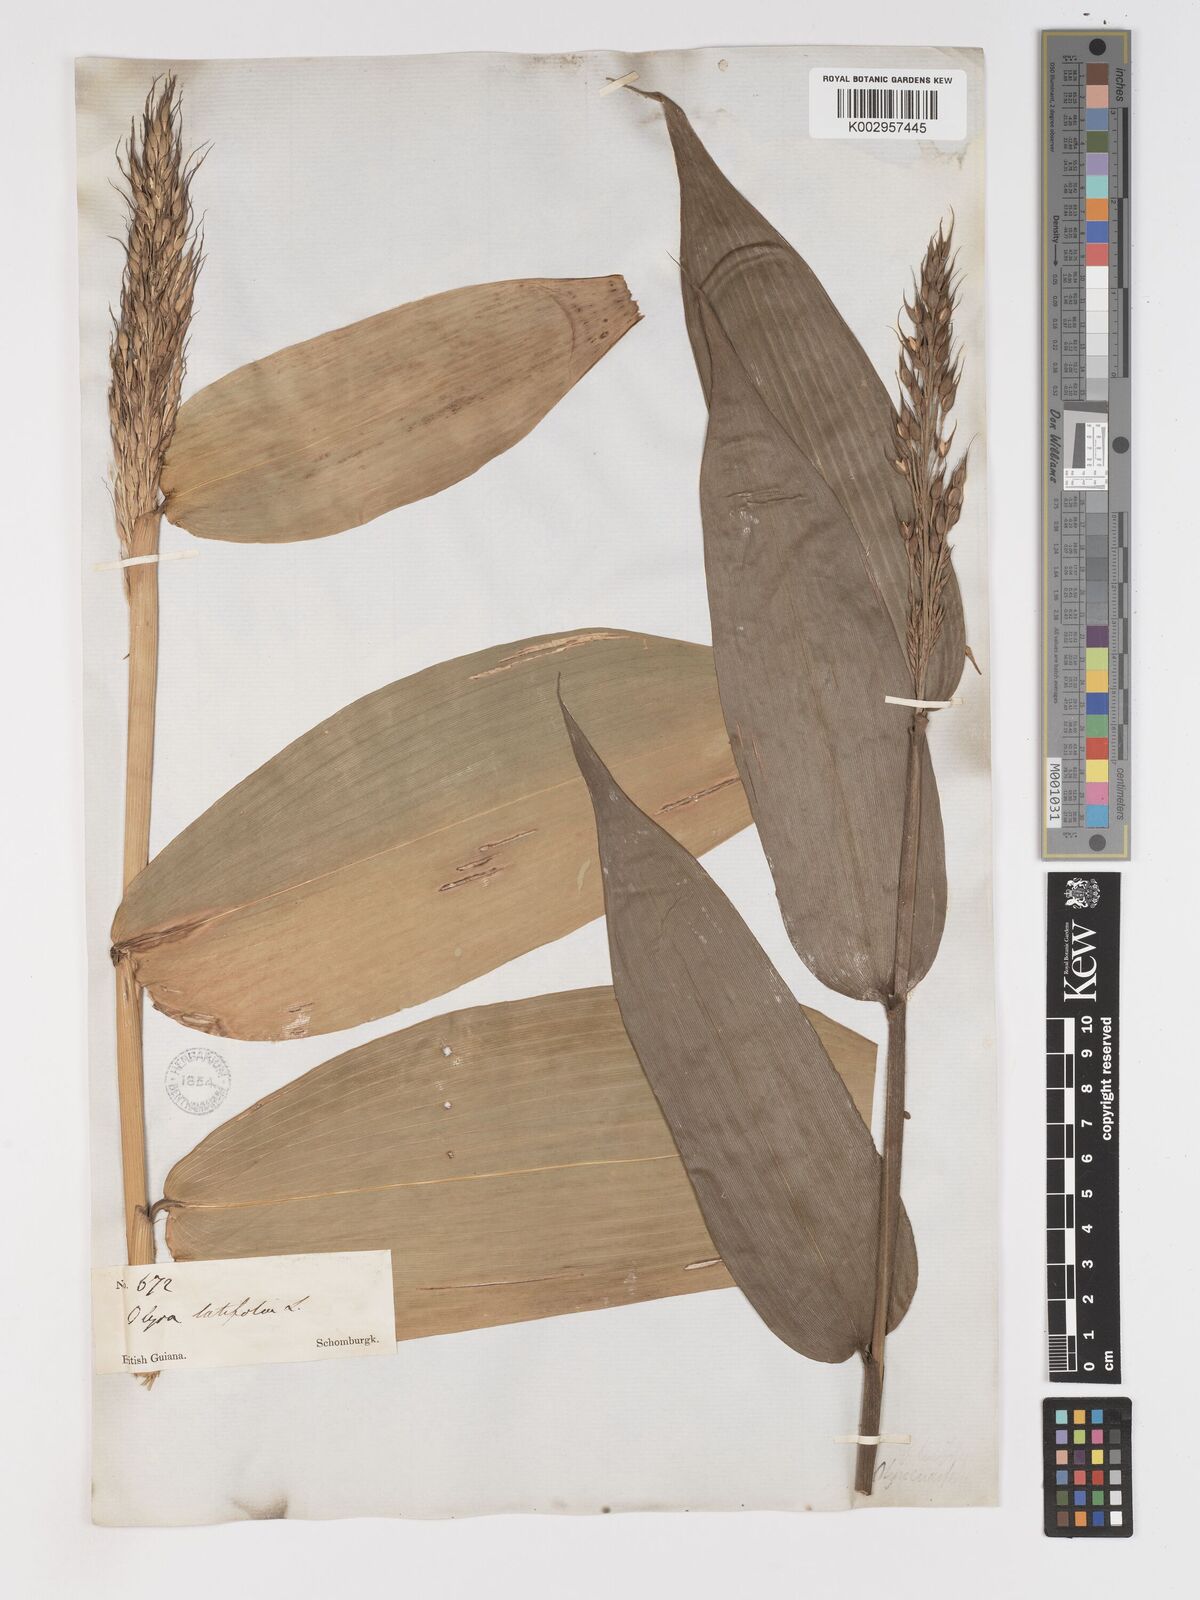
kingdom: Plantae
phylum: Tracheophyta
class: Liliopsida
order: Poales
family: Poaceae
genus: Olyra
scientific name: Olyra latifolia
